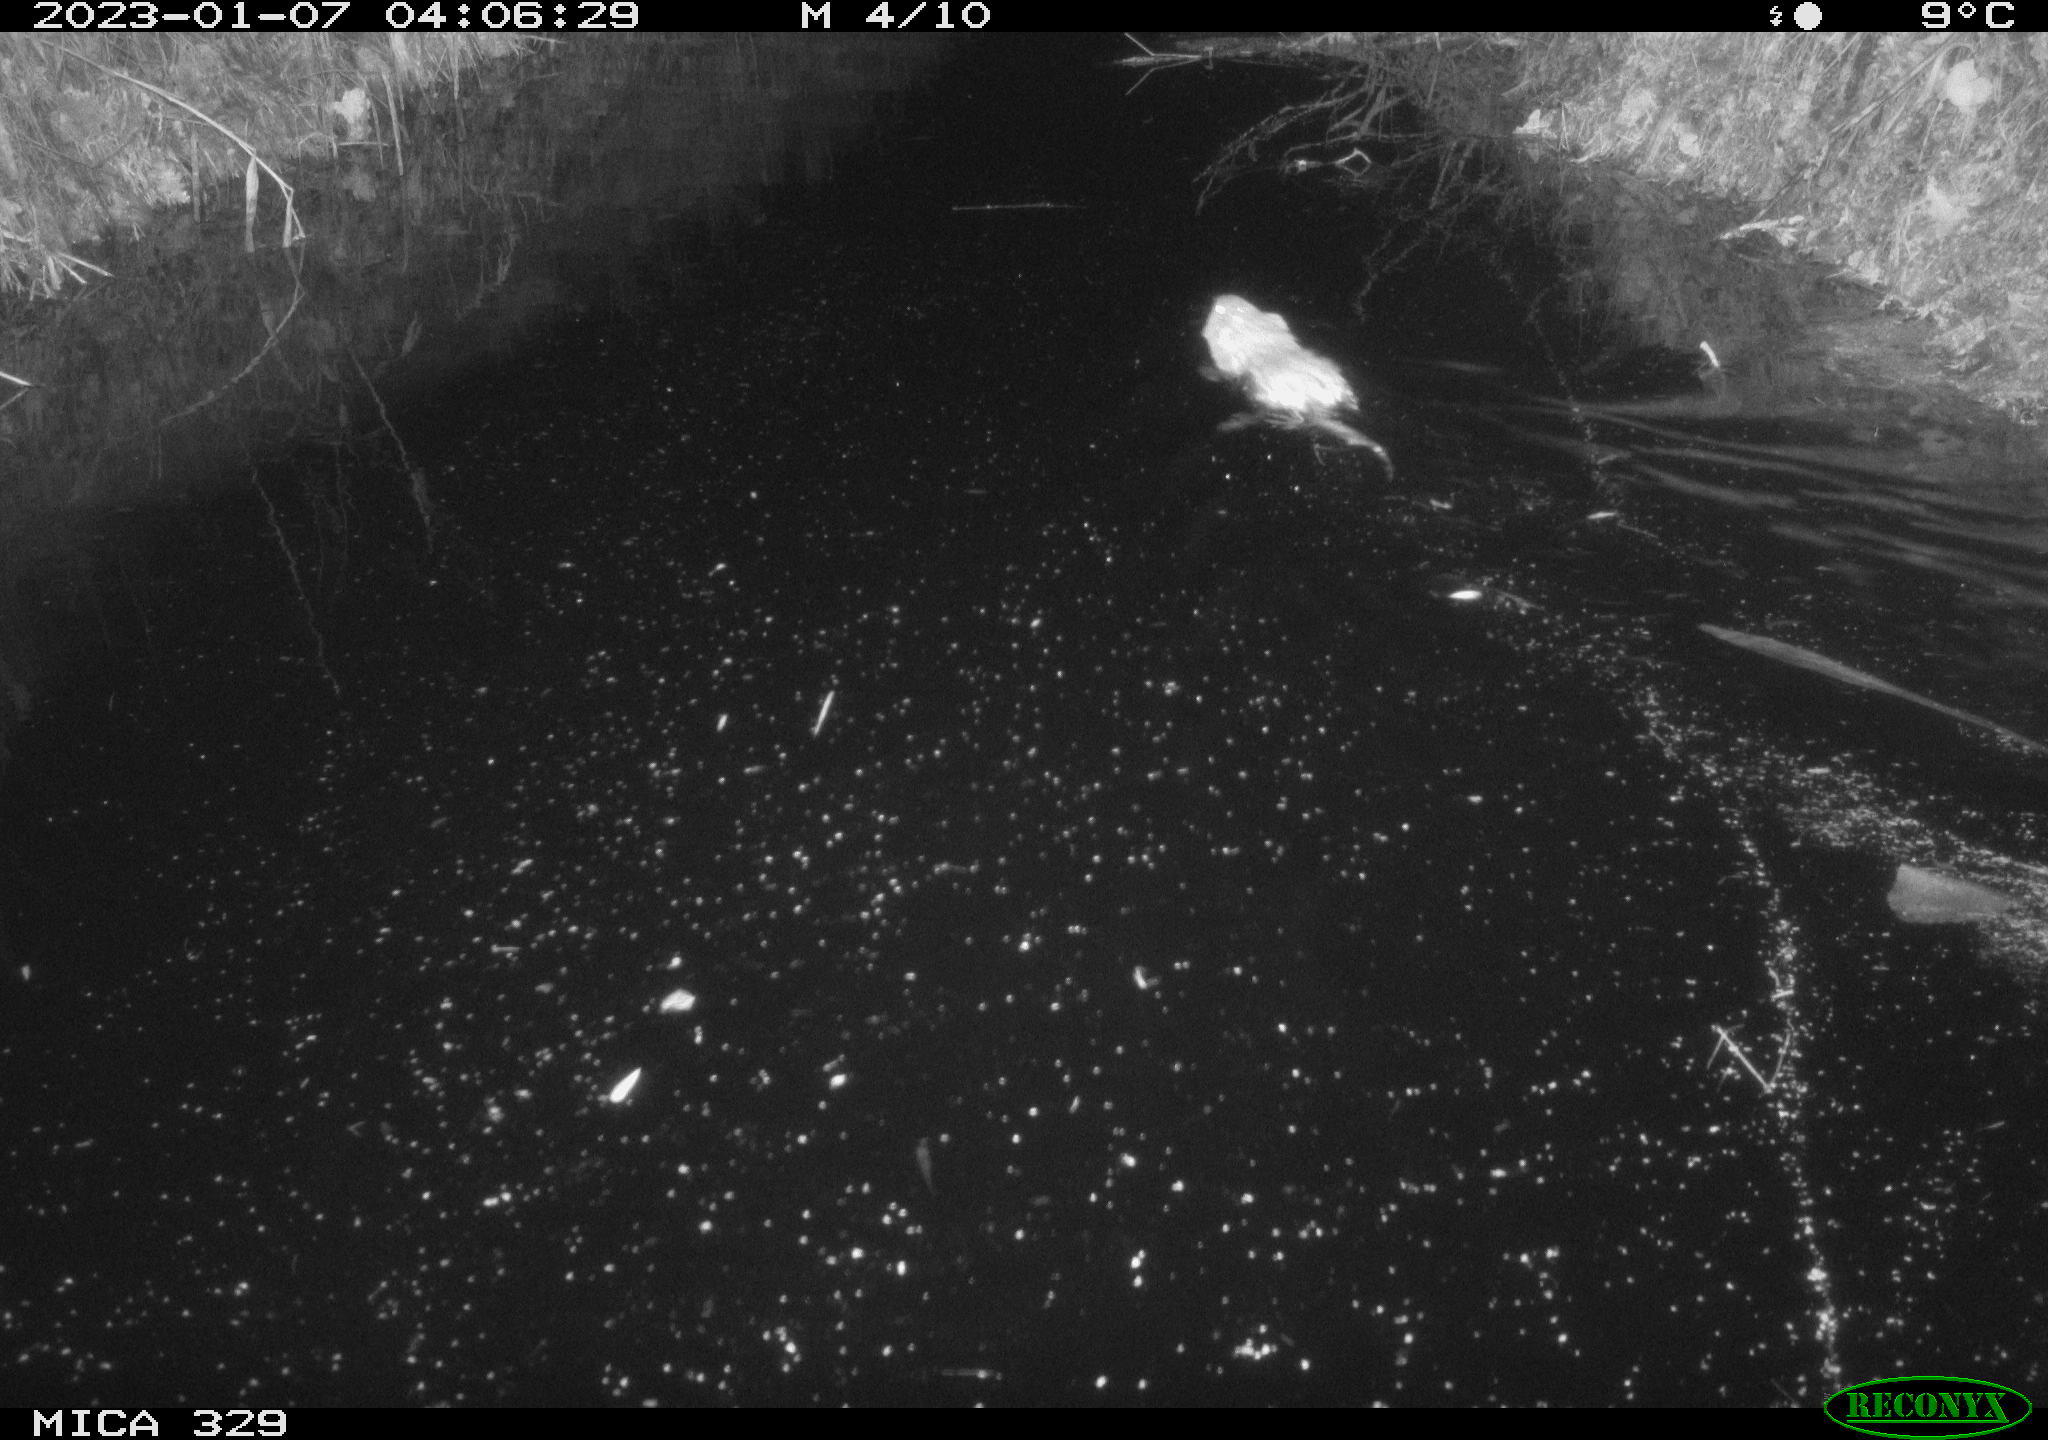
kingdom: Animalia
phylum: Chordata
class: Mammalia
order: Rodentia
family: Cricetidae
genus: Ondatra
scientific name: Ondatra zibethicus
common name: Muskrat
